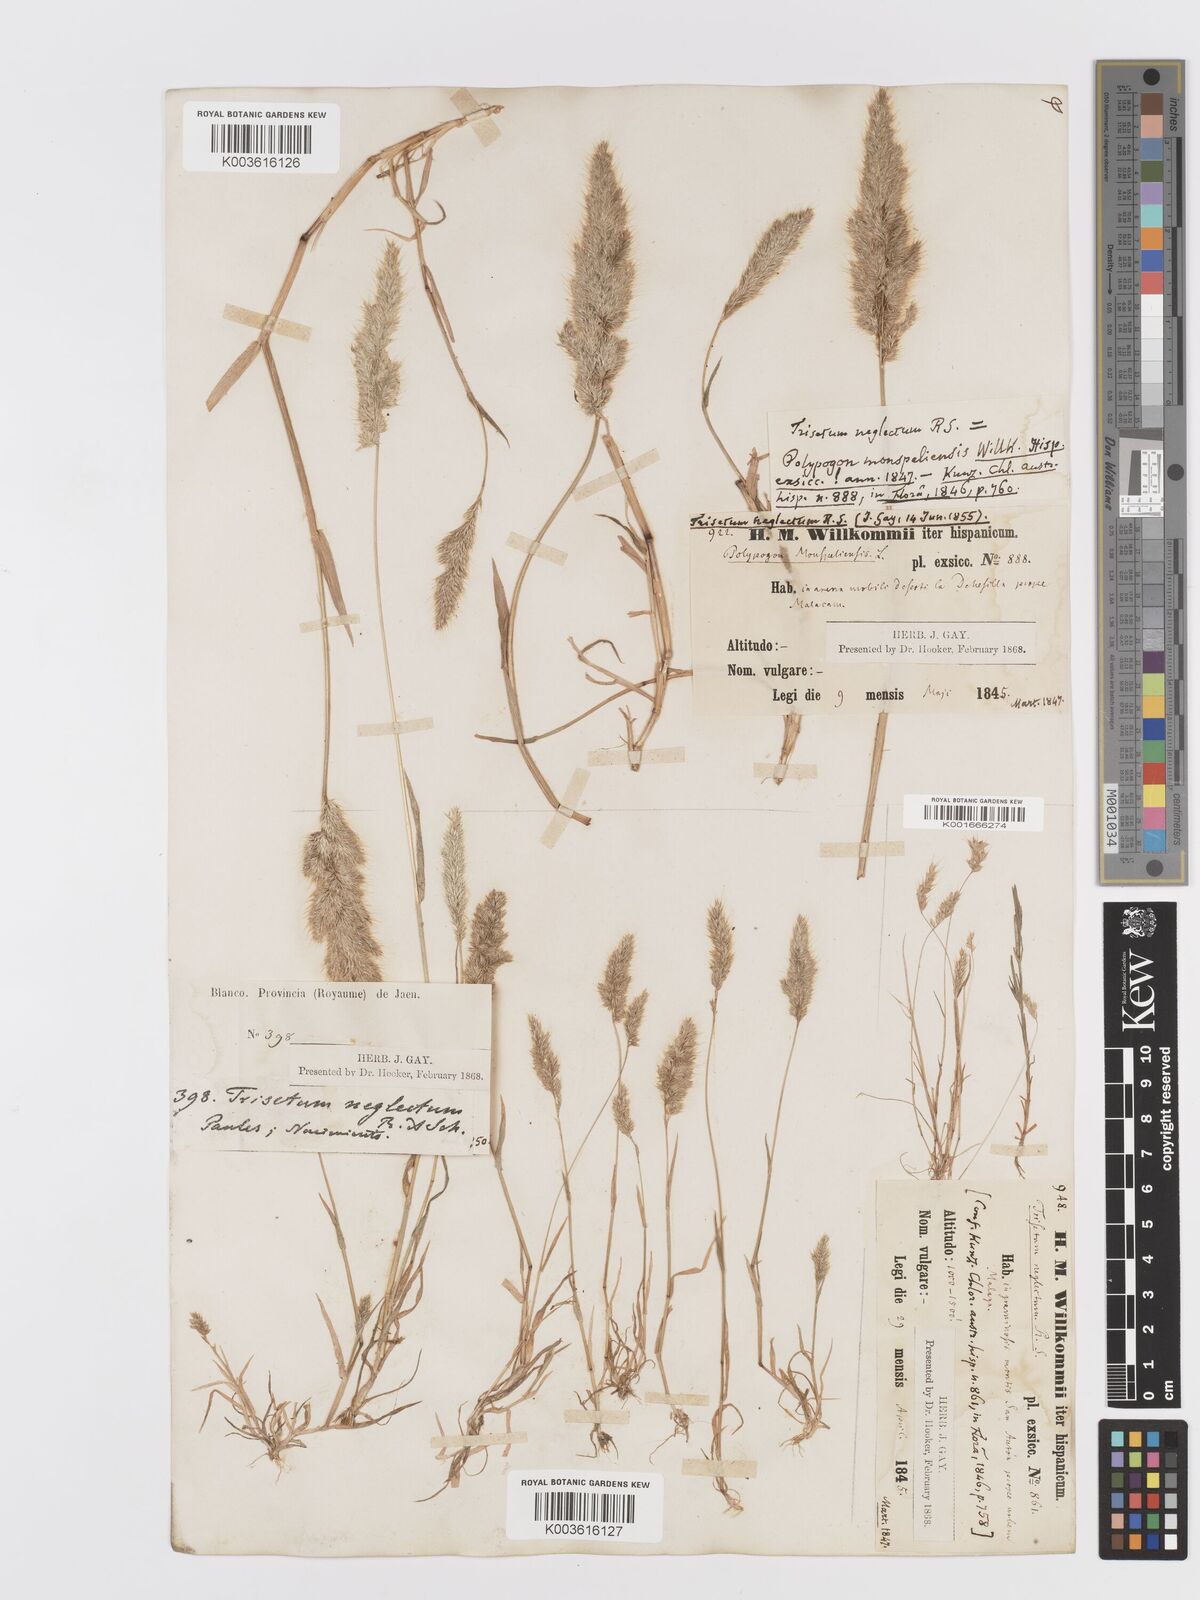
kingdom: Plantae
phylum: Tracheophyta
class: Liliopsida
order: Poales
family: Poaceae
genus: Trisetaria
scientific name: Trisetaria panicea
